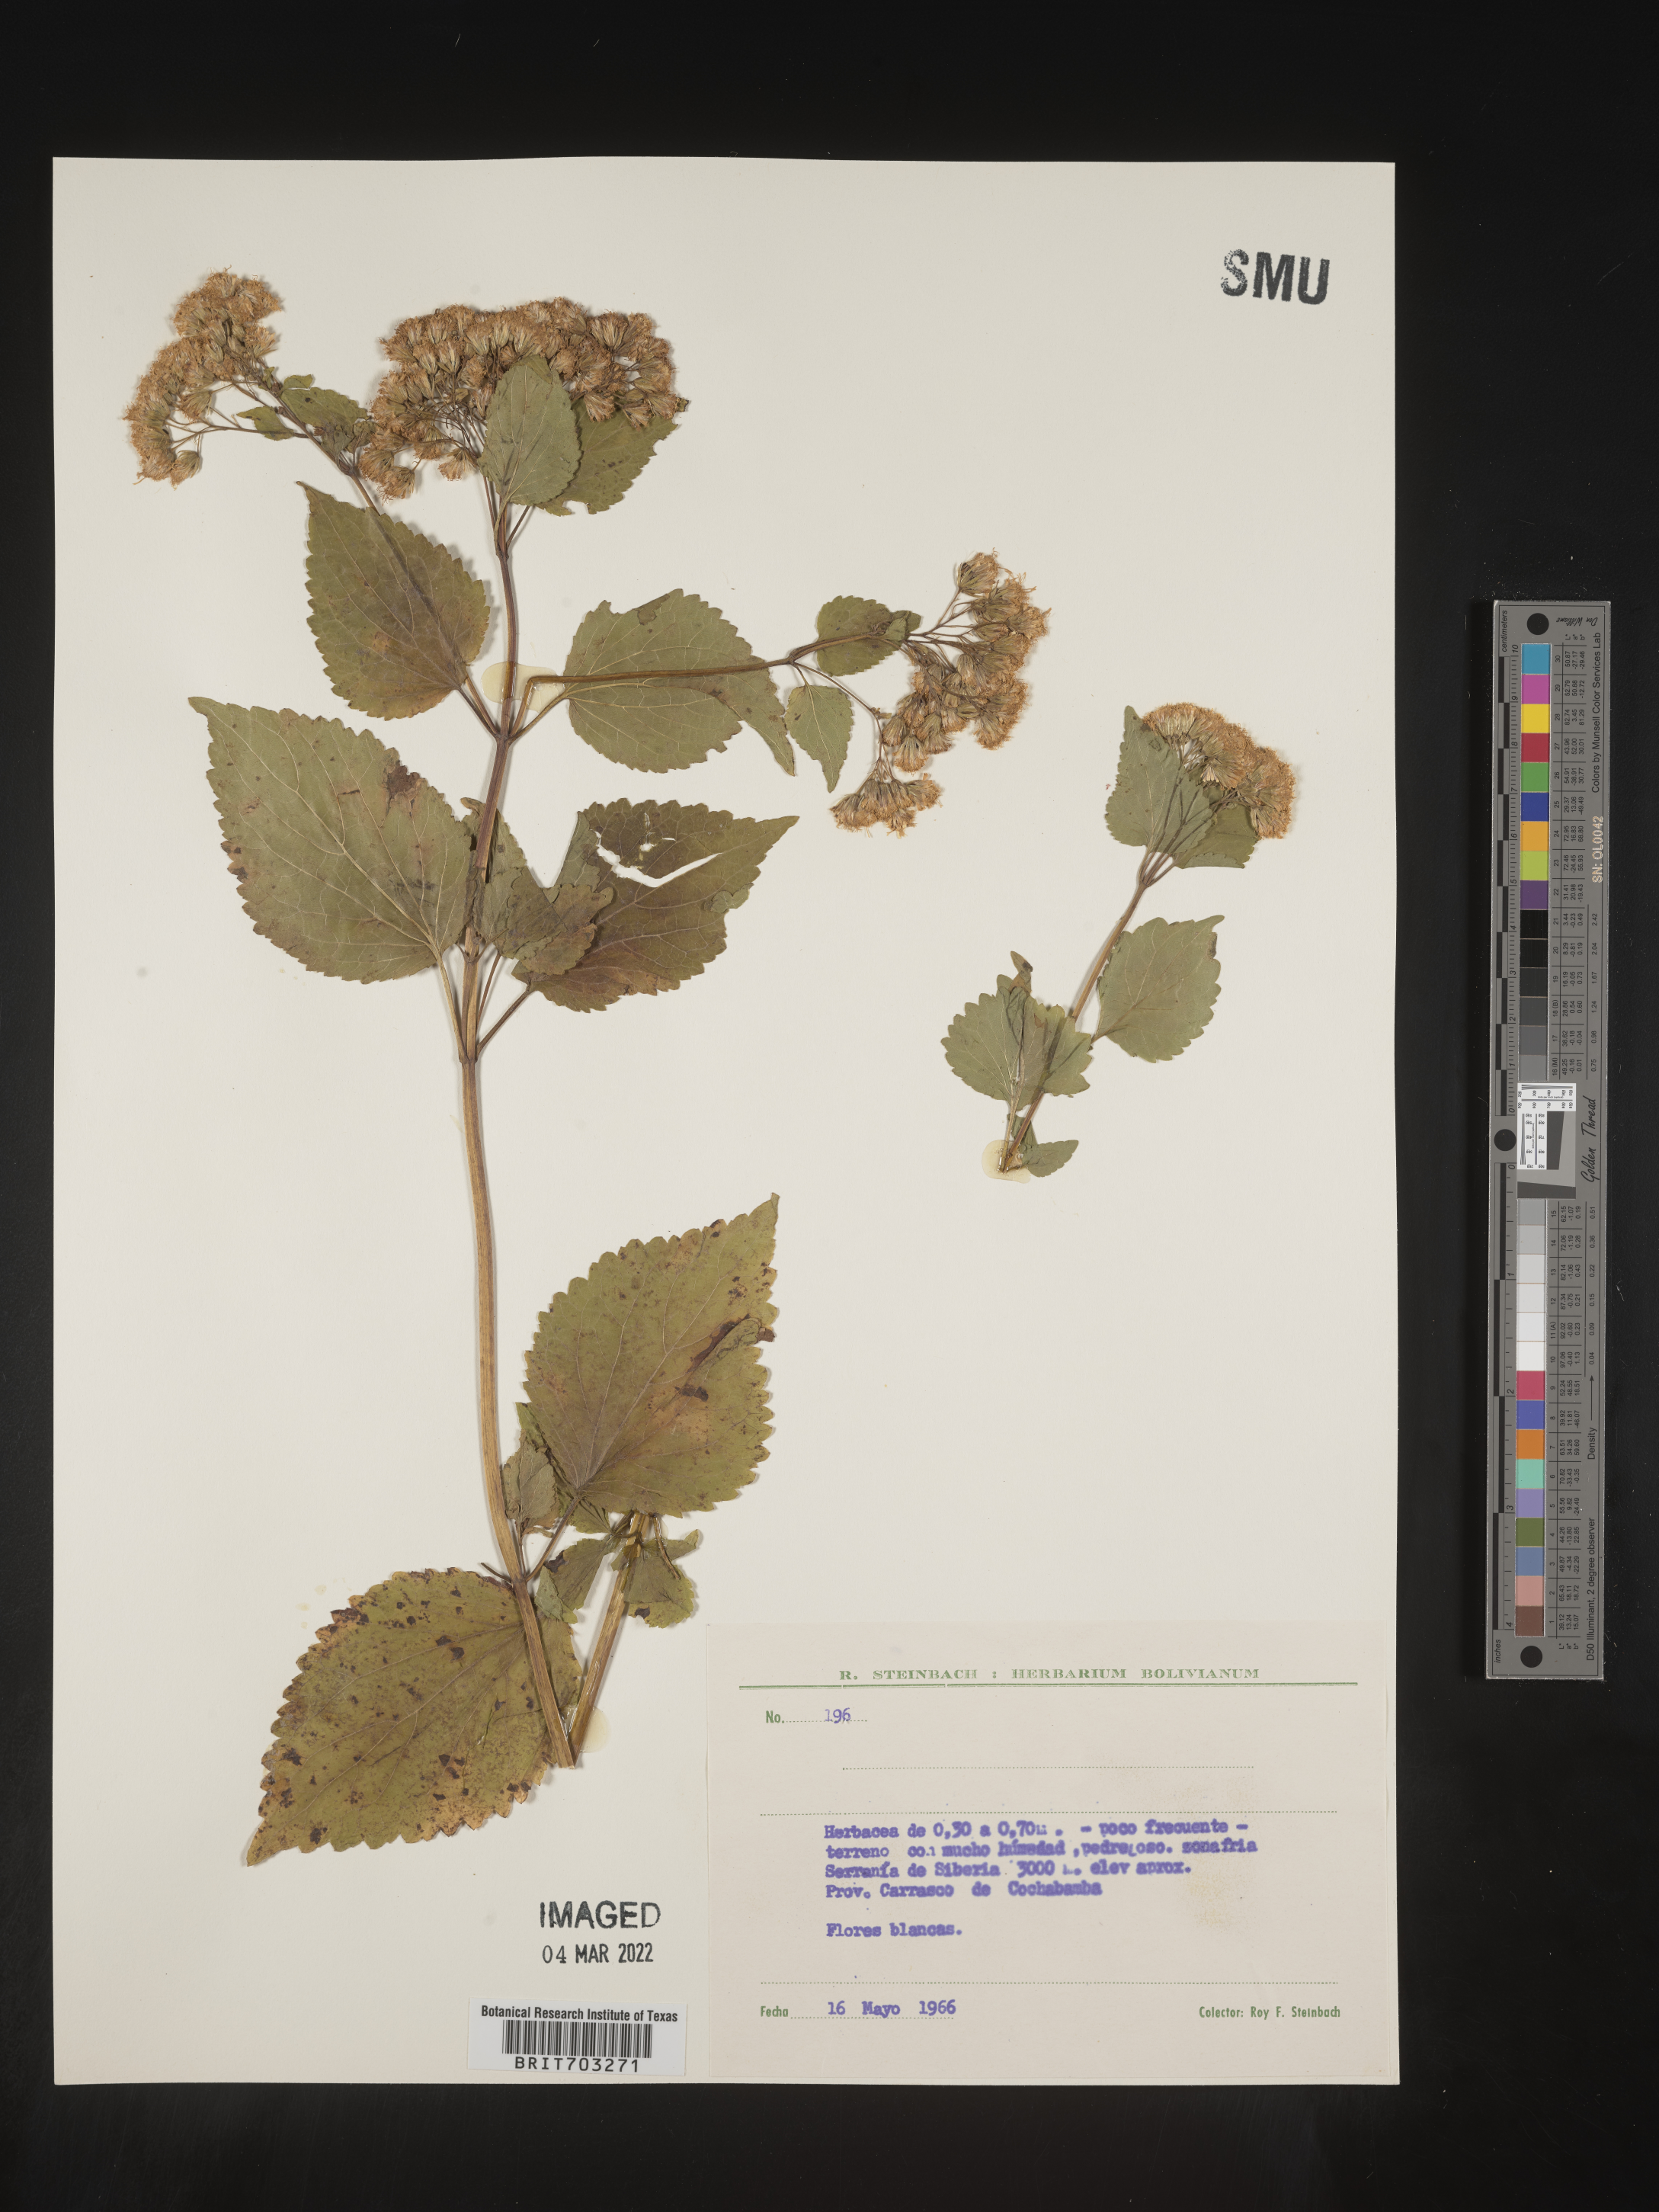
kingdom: Plantae
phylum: Tracheophyta
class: Magnoliopsida
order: Asterales
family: Asteraceae
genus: Eupatorium
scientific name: Eupatorium
